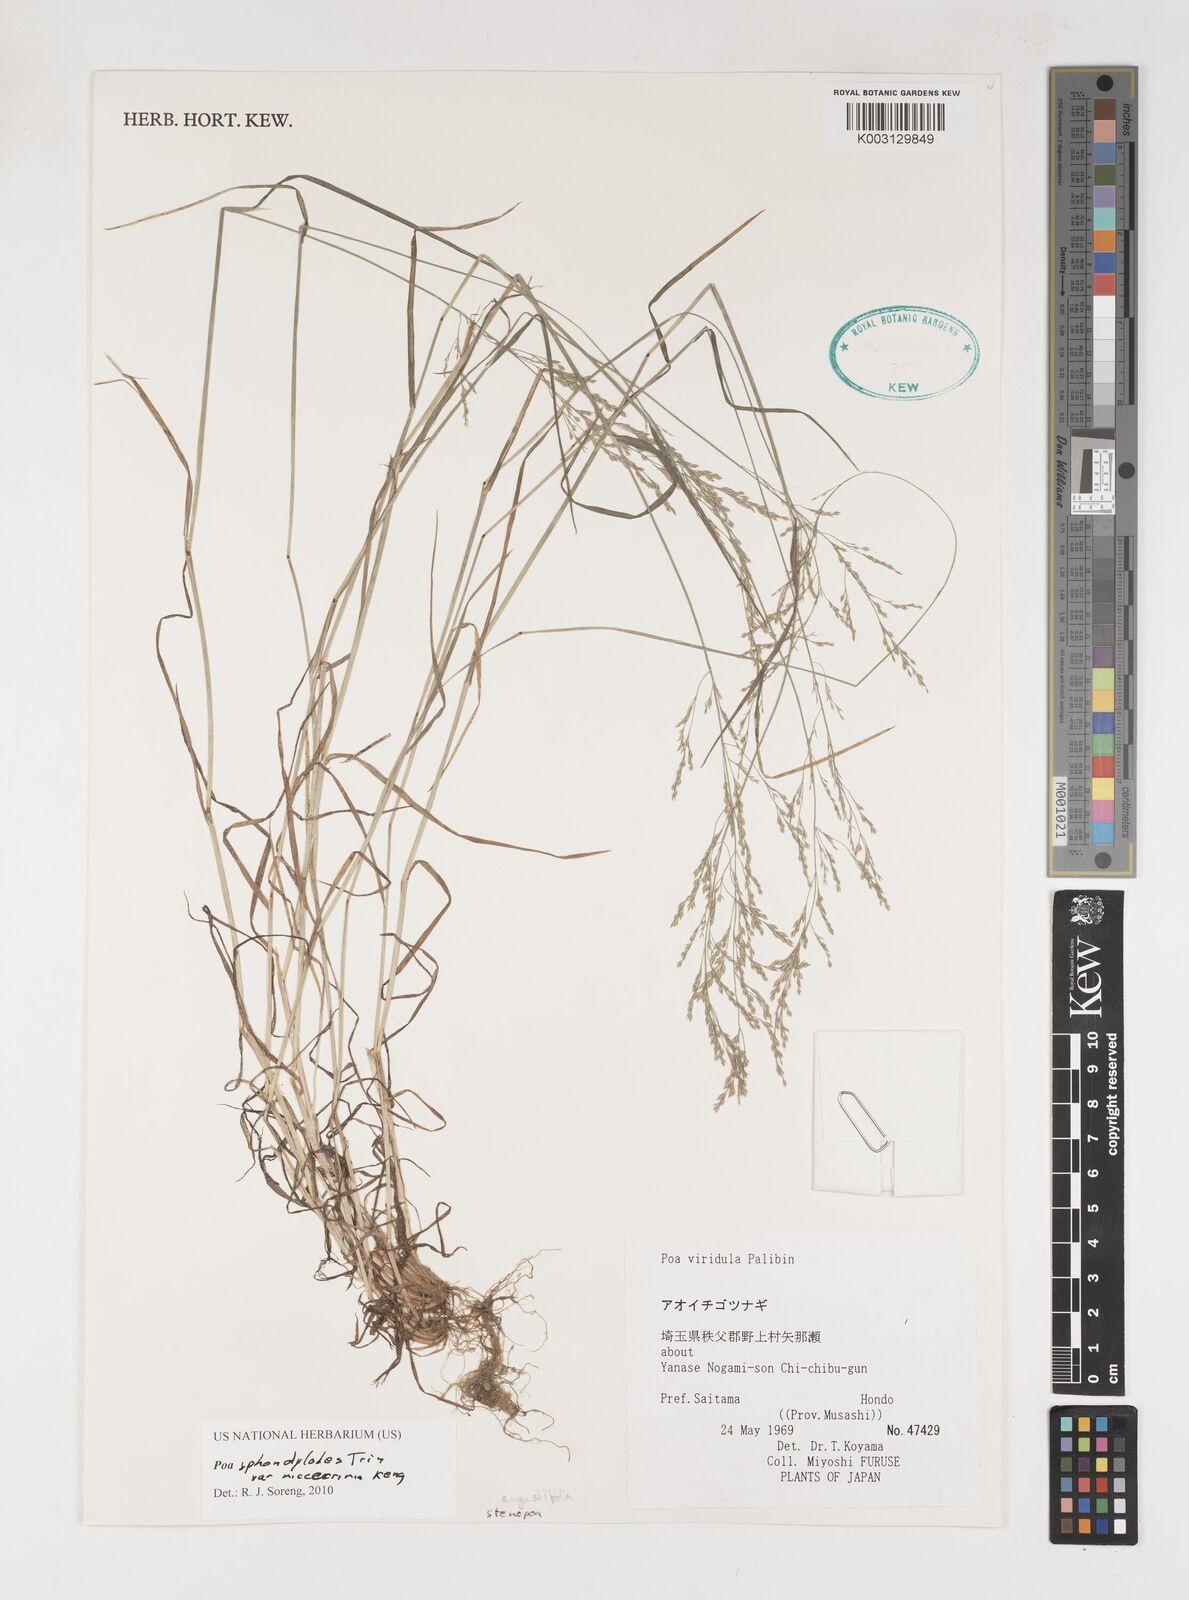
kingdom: Plantae
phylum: Tracheophyta
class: Liliopsida
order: Poales
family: Poaceae
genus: Poa
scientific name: Poa sphondylodes
